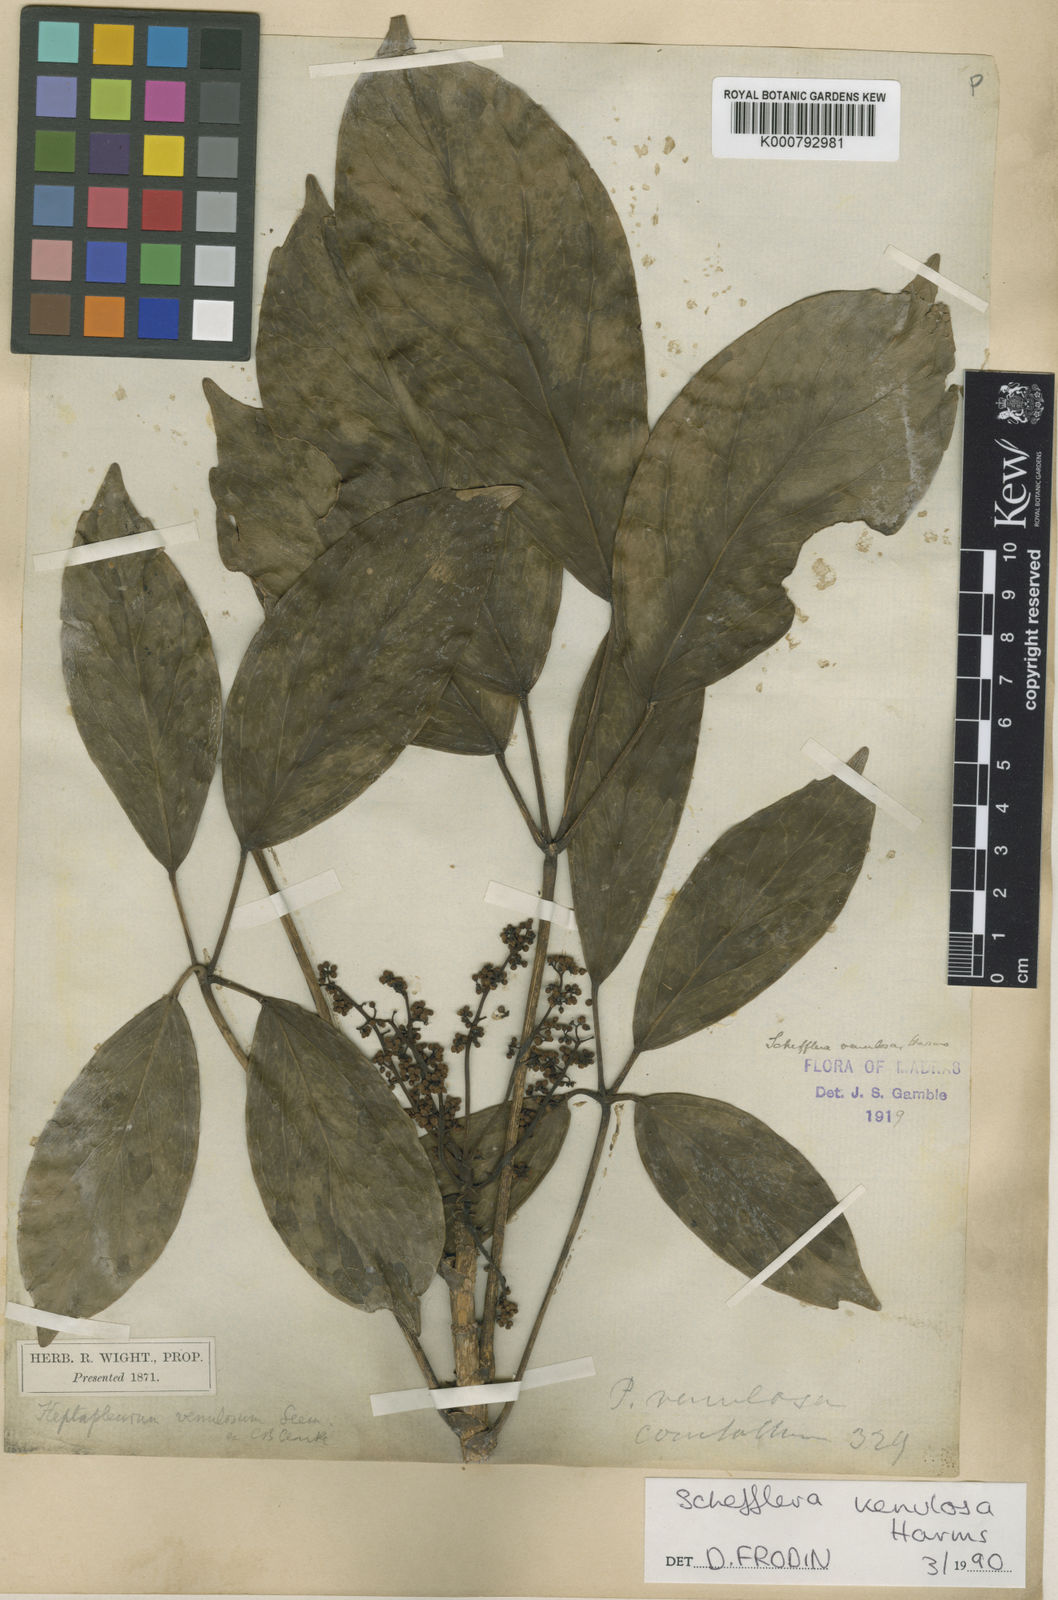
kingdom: Plantae
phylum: Tracheophyta
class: Magnoliopsida
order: Apiales
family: Araliaceae
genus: Heptapleurum
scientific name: Heptapleurum venulosum
